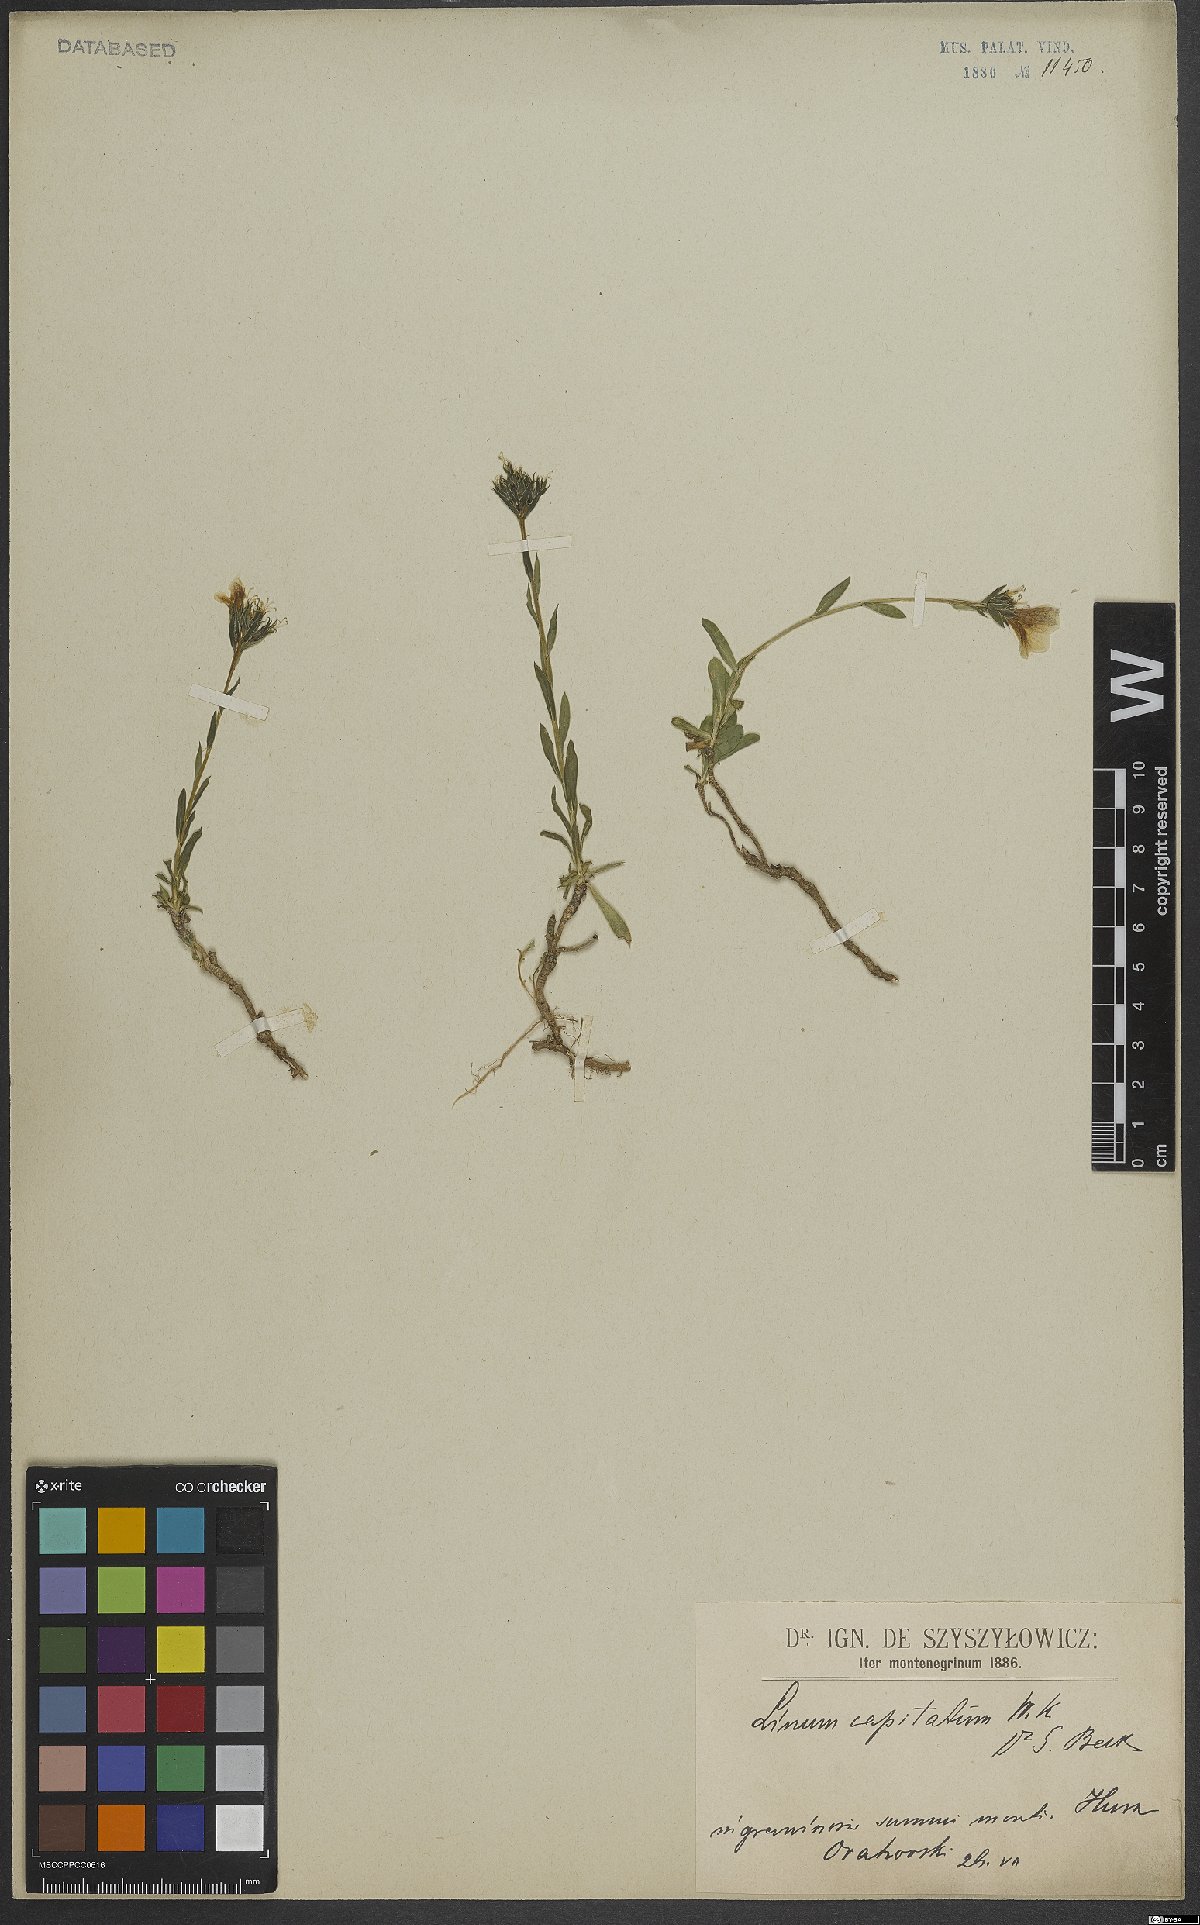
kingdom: Plantae
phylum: Tracheophyta
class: Magnoliopsida
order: Malpighiales
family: Linaceae
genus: Linum
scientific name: Linum capitatum
